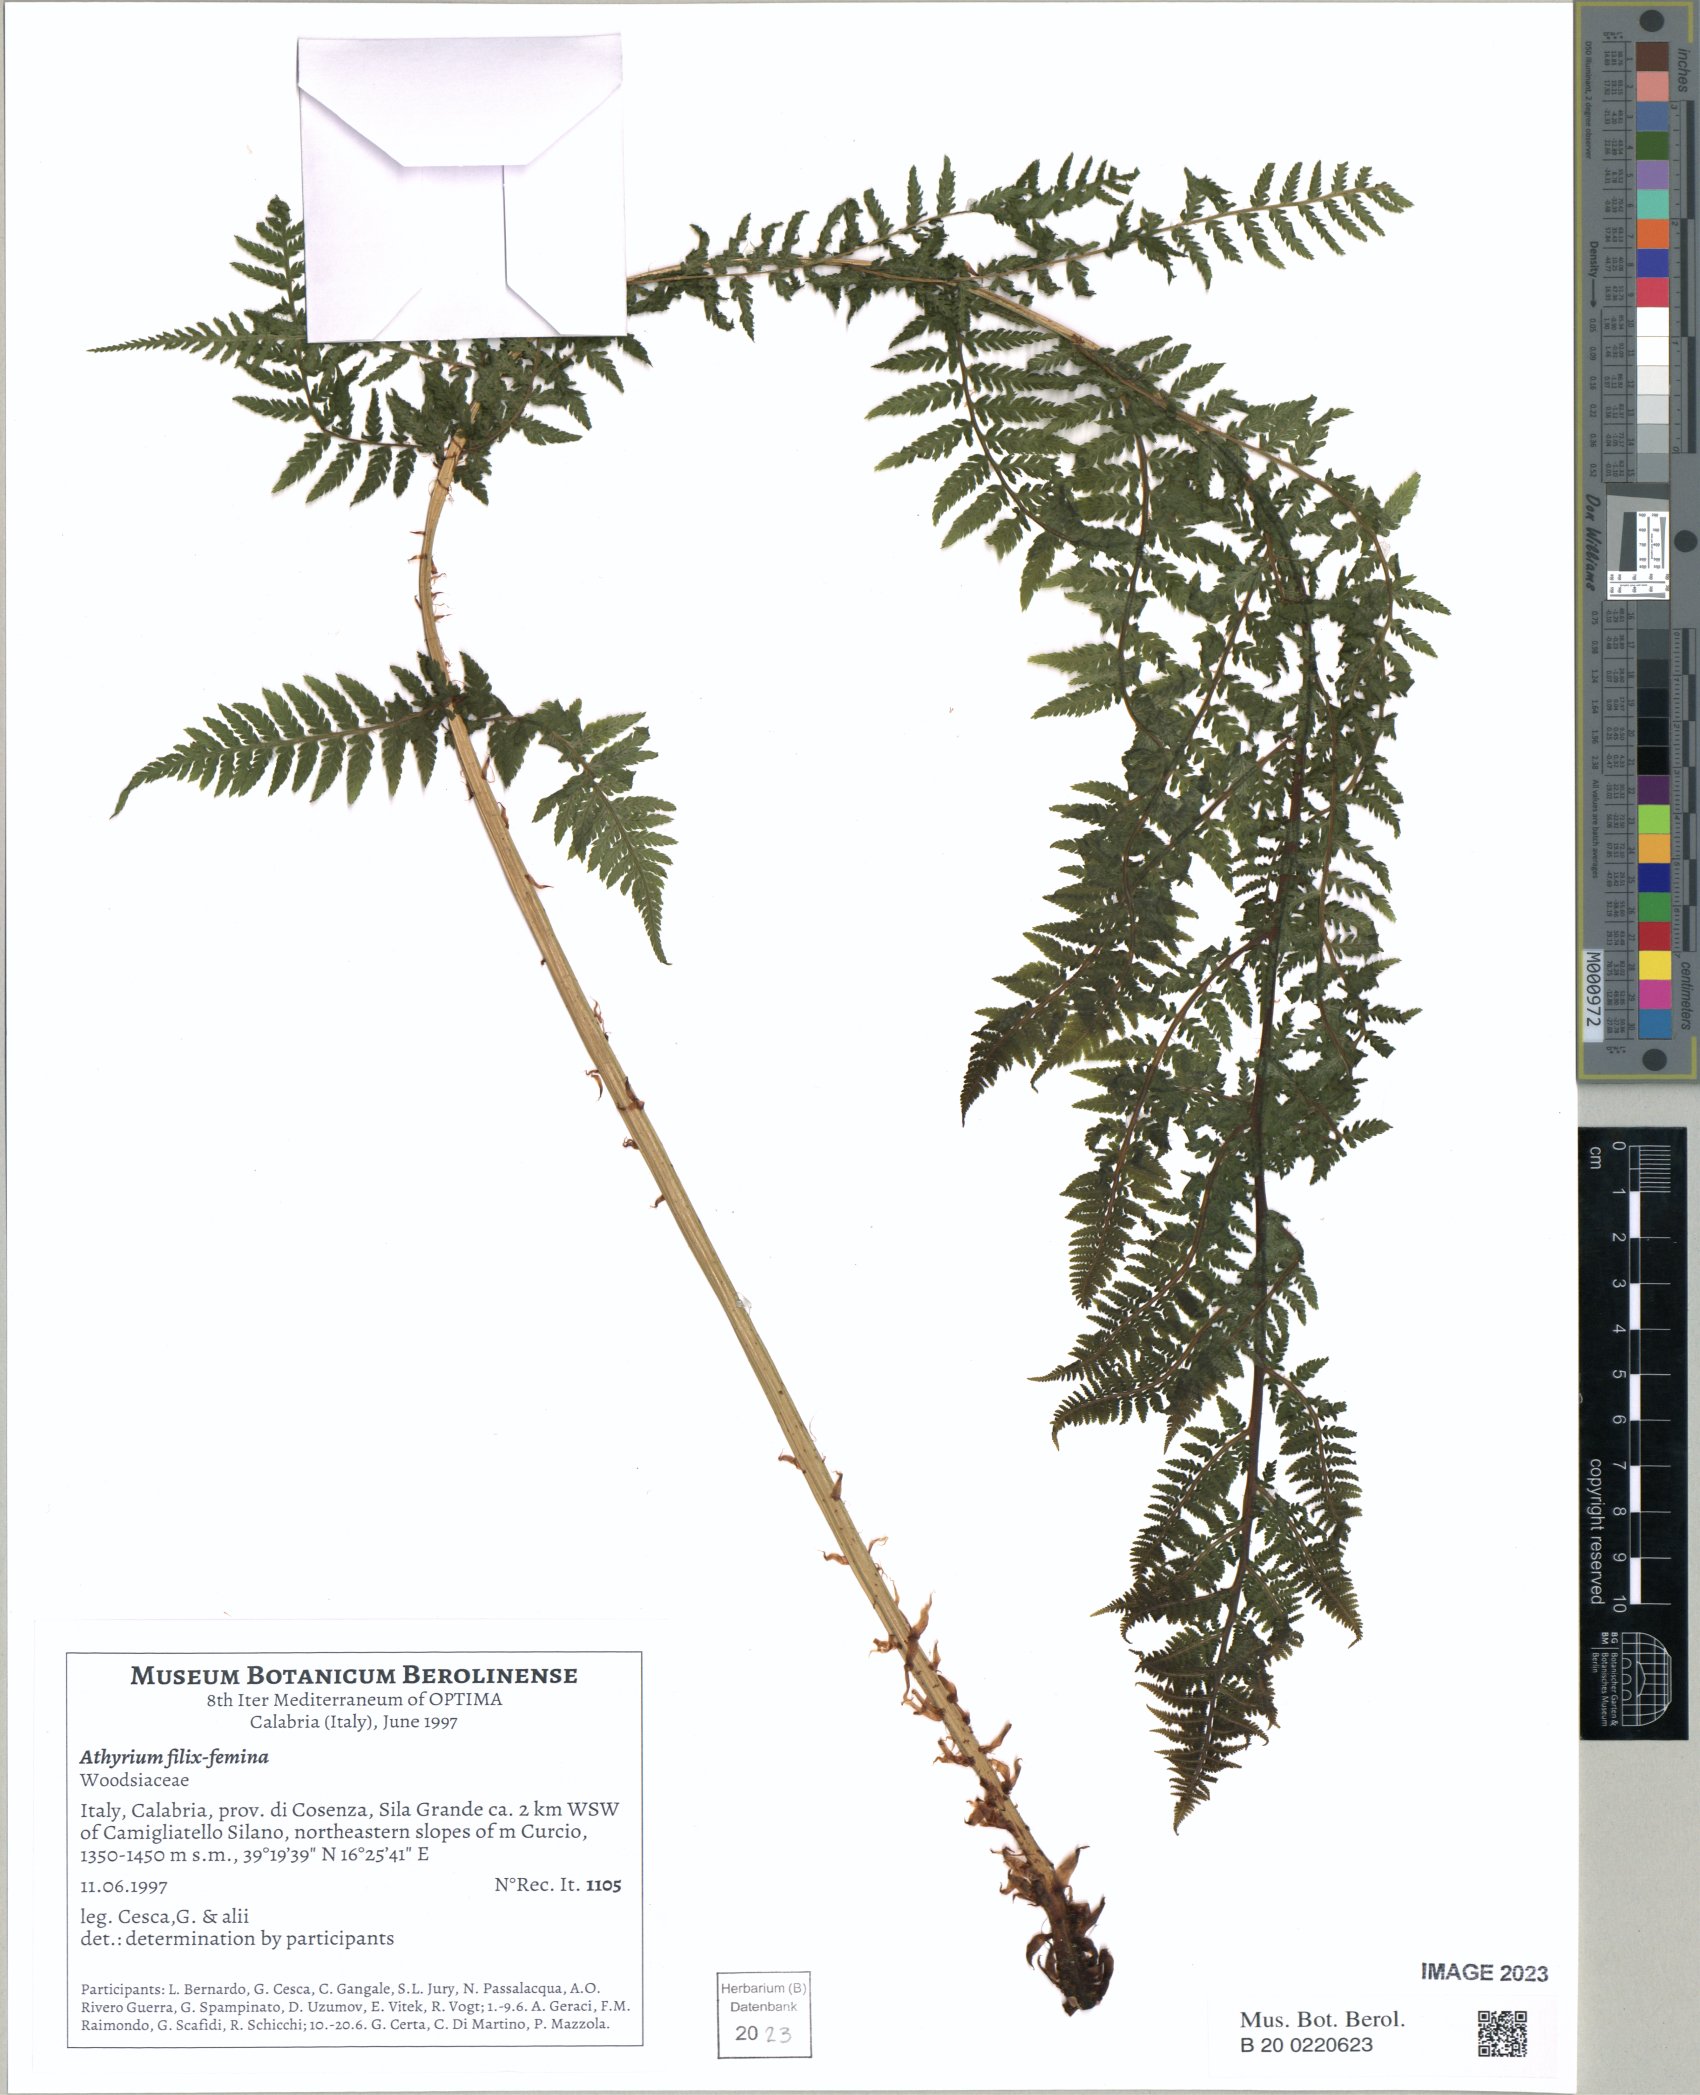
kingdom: Plantae
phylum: Tracheophyta
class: Polypodiopsida
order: Polypodiales
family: Athyriaceae
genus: Athyrium
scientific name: Athyrium filix-femina
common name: Lady fern
